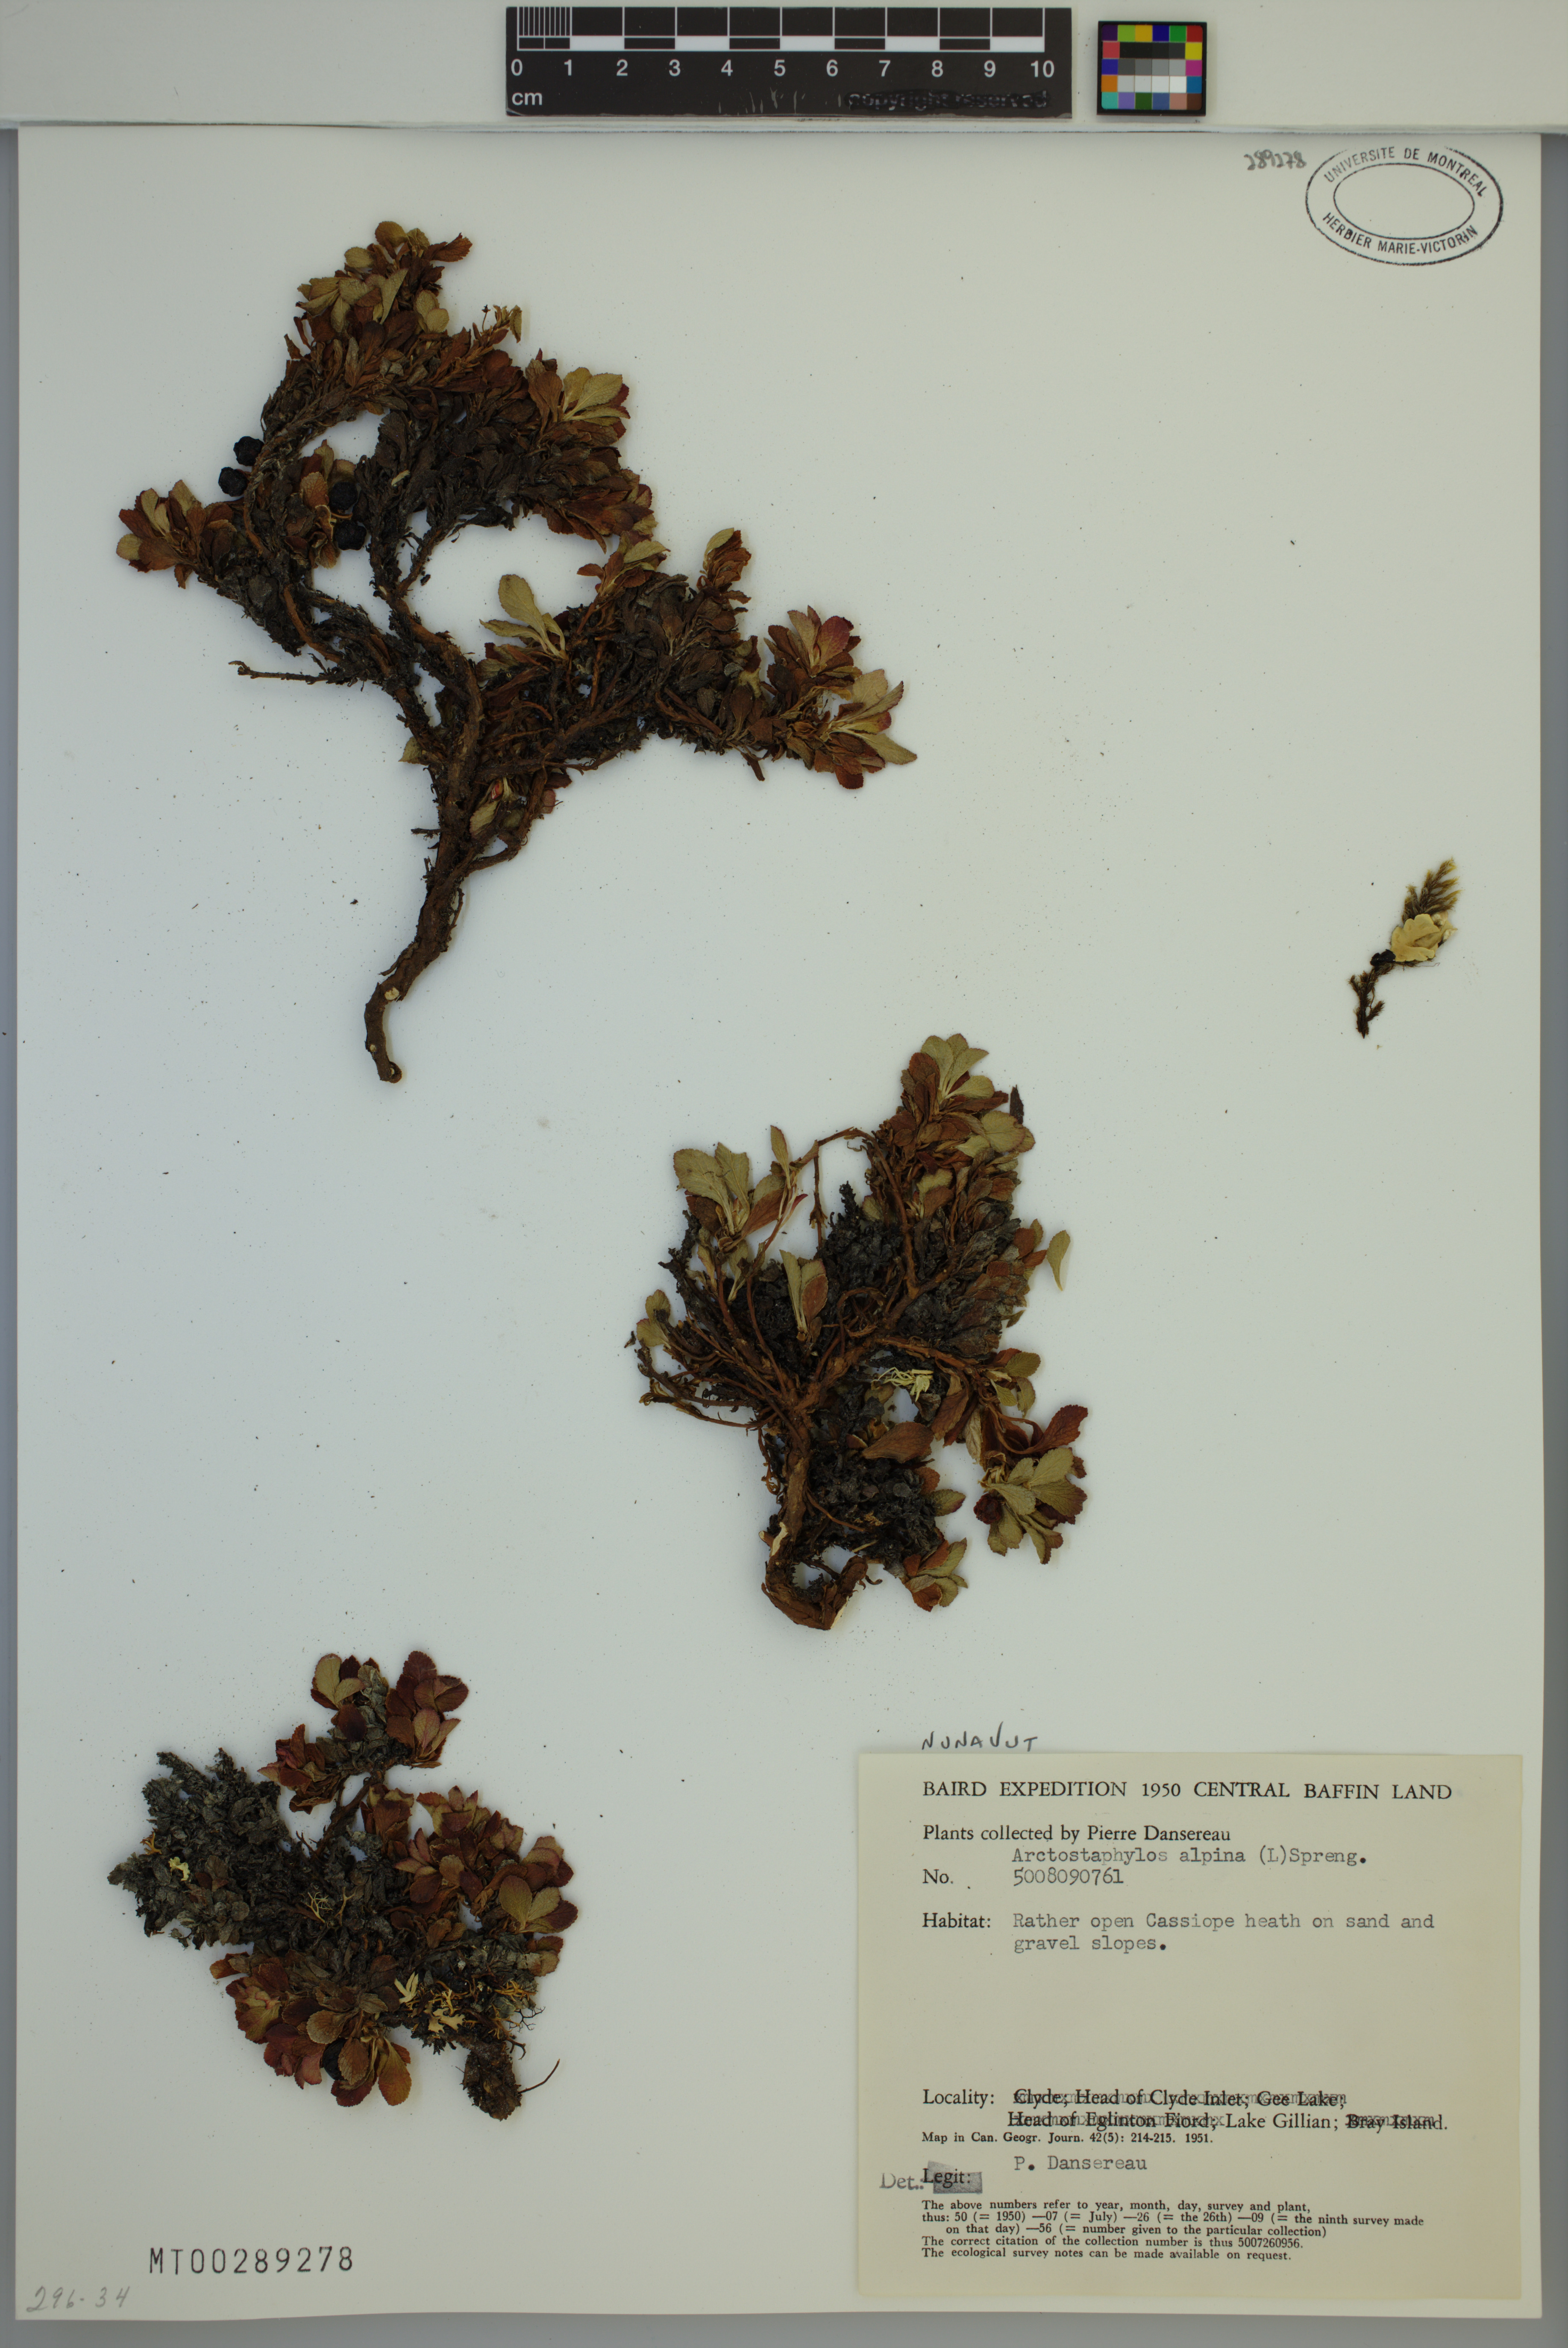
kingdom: Plantae
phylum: Tracheophyta
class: Magnoliopsida
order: Ericales
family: Ericaceae
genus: Arctostaphylos
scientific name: Arctostaphylos alpinus
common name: Alpine bearberry
